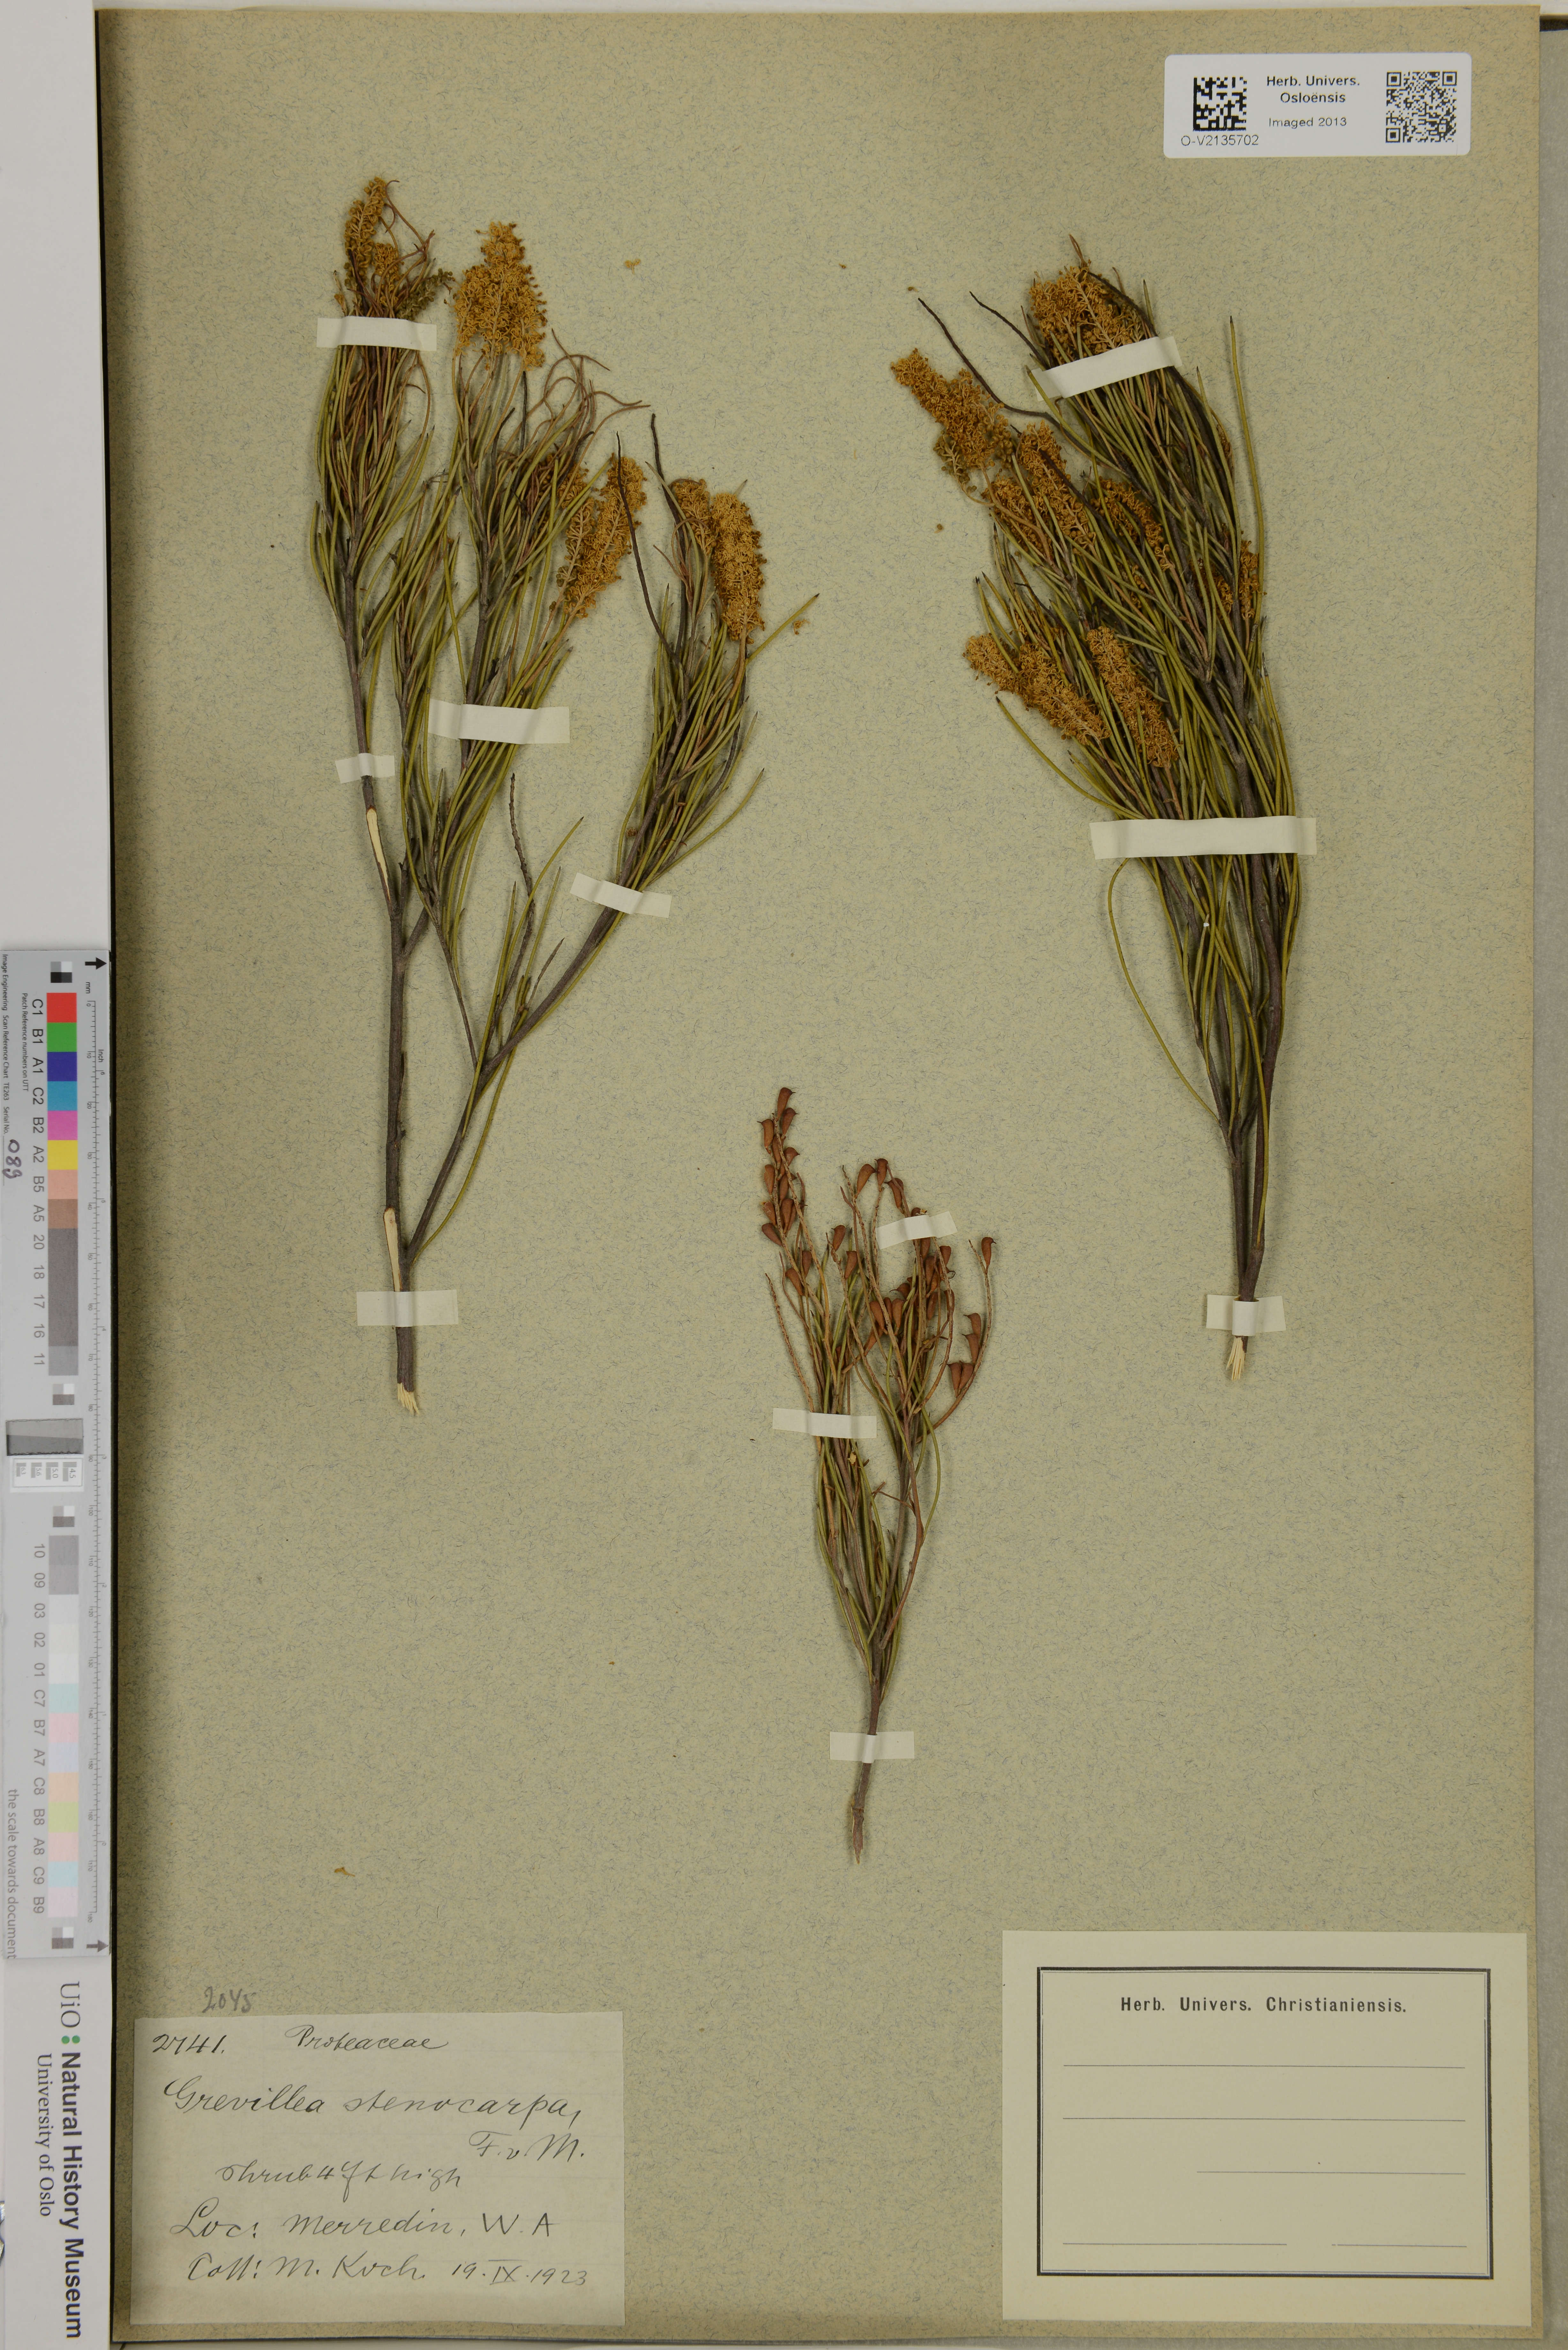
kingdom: Plantae
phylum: Tracheophyta
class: Magnoliopsida
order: Proteales
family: Proteaceae
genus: Grevillea
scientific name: Grevillea biformis
